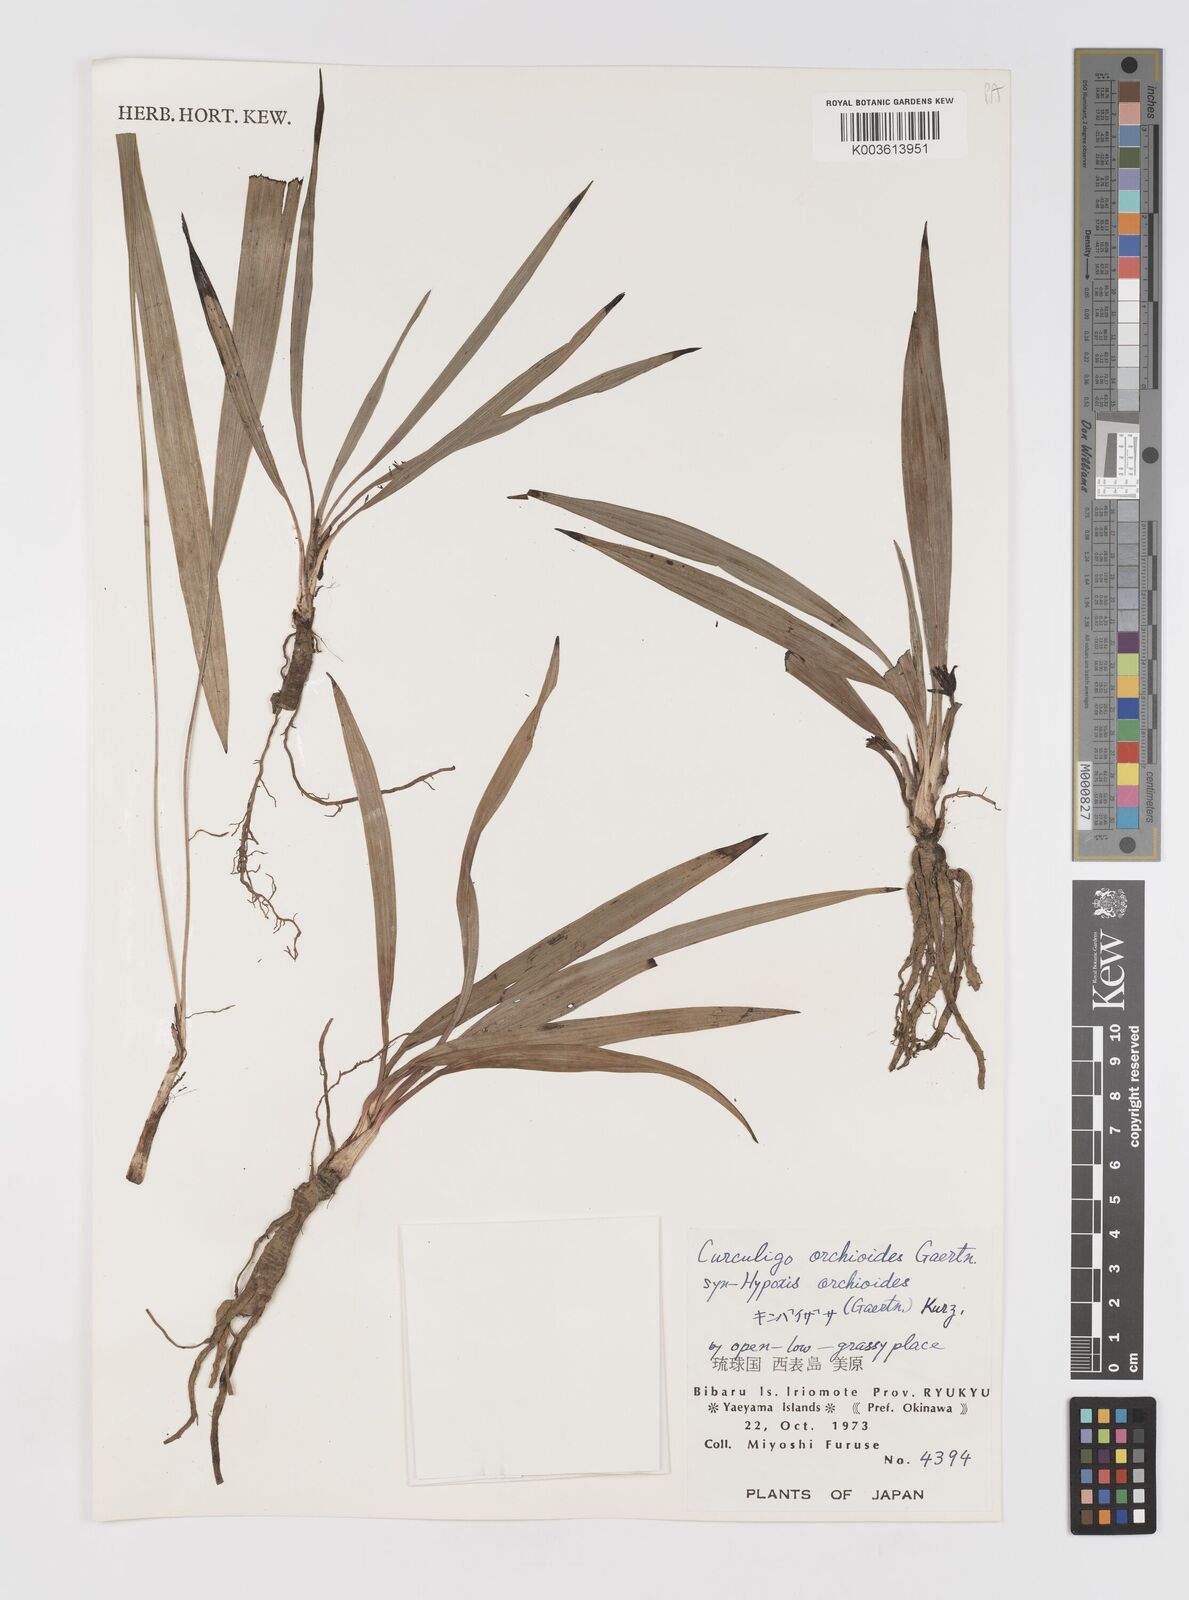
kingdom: Plantae
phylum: Tracheophyta
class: Liliopsida
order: Asparagales
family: Hypoxidaceae
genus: Curculigo
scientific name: Curculigo orchioides
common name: Golden eye-grass
